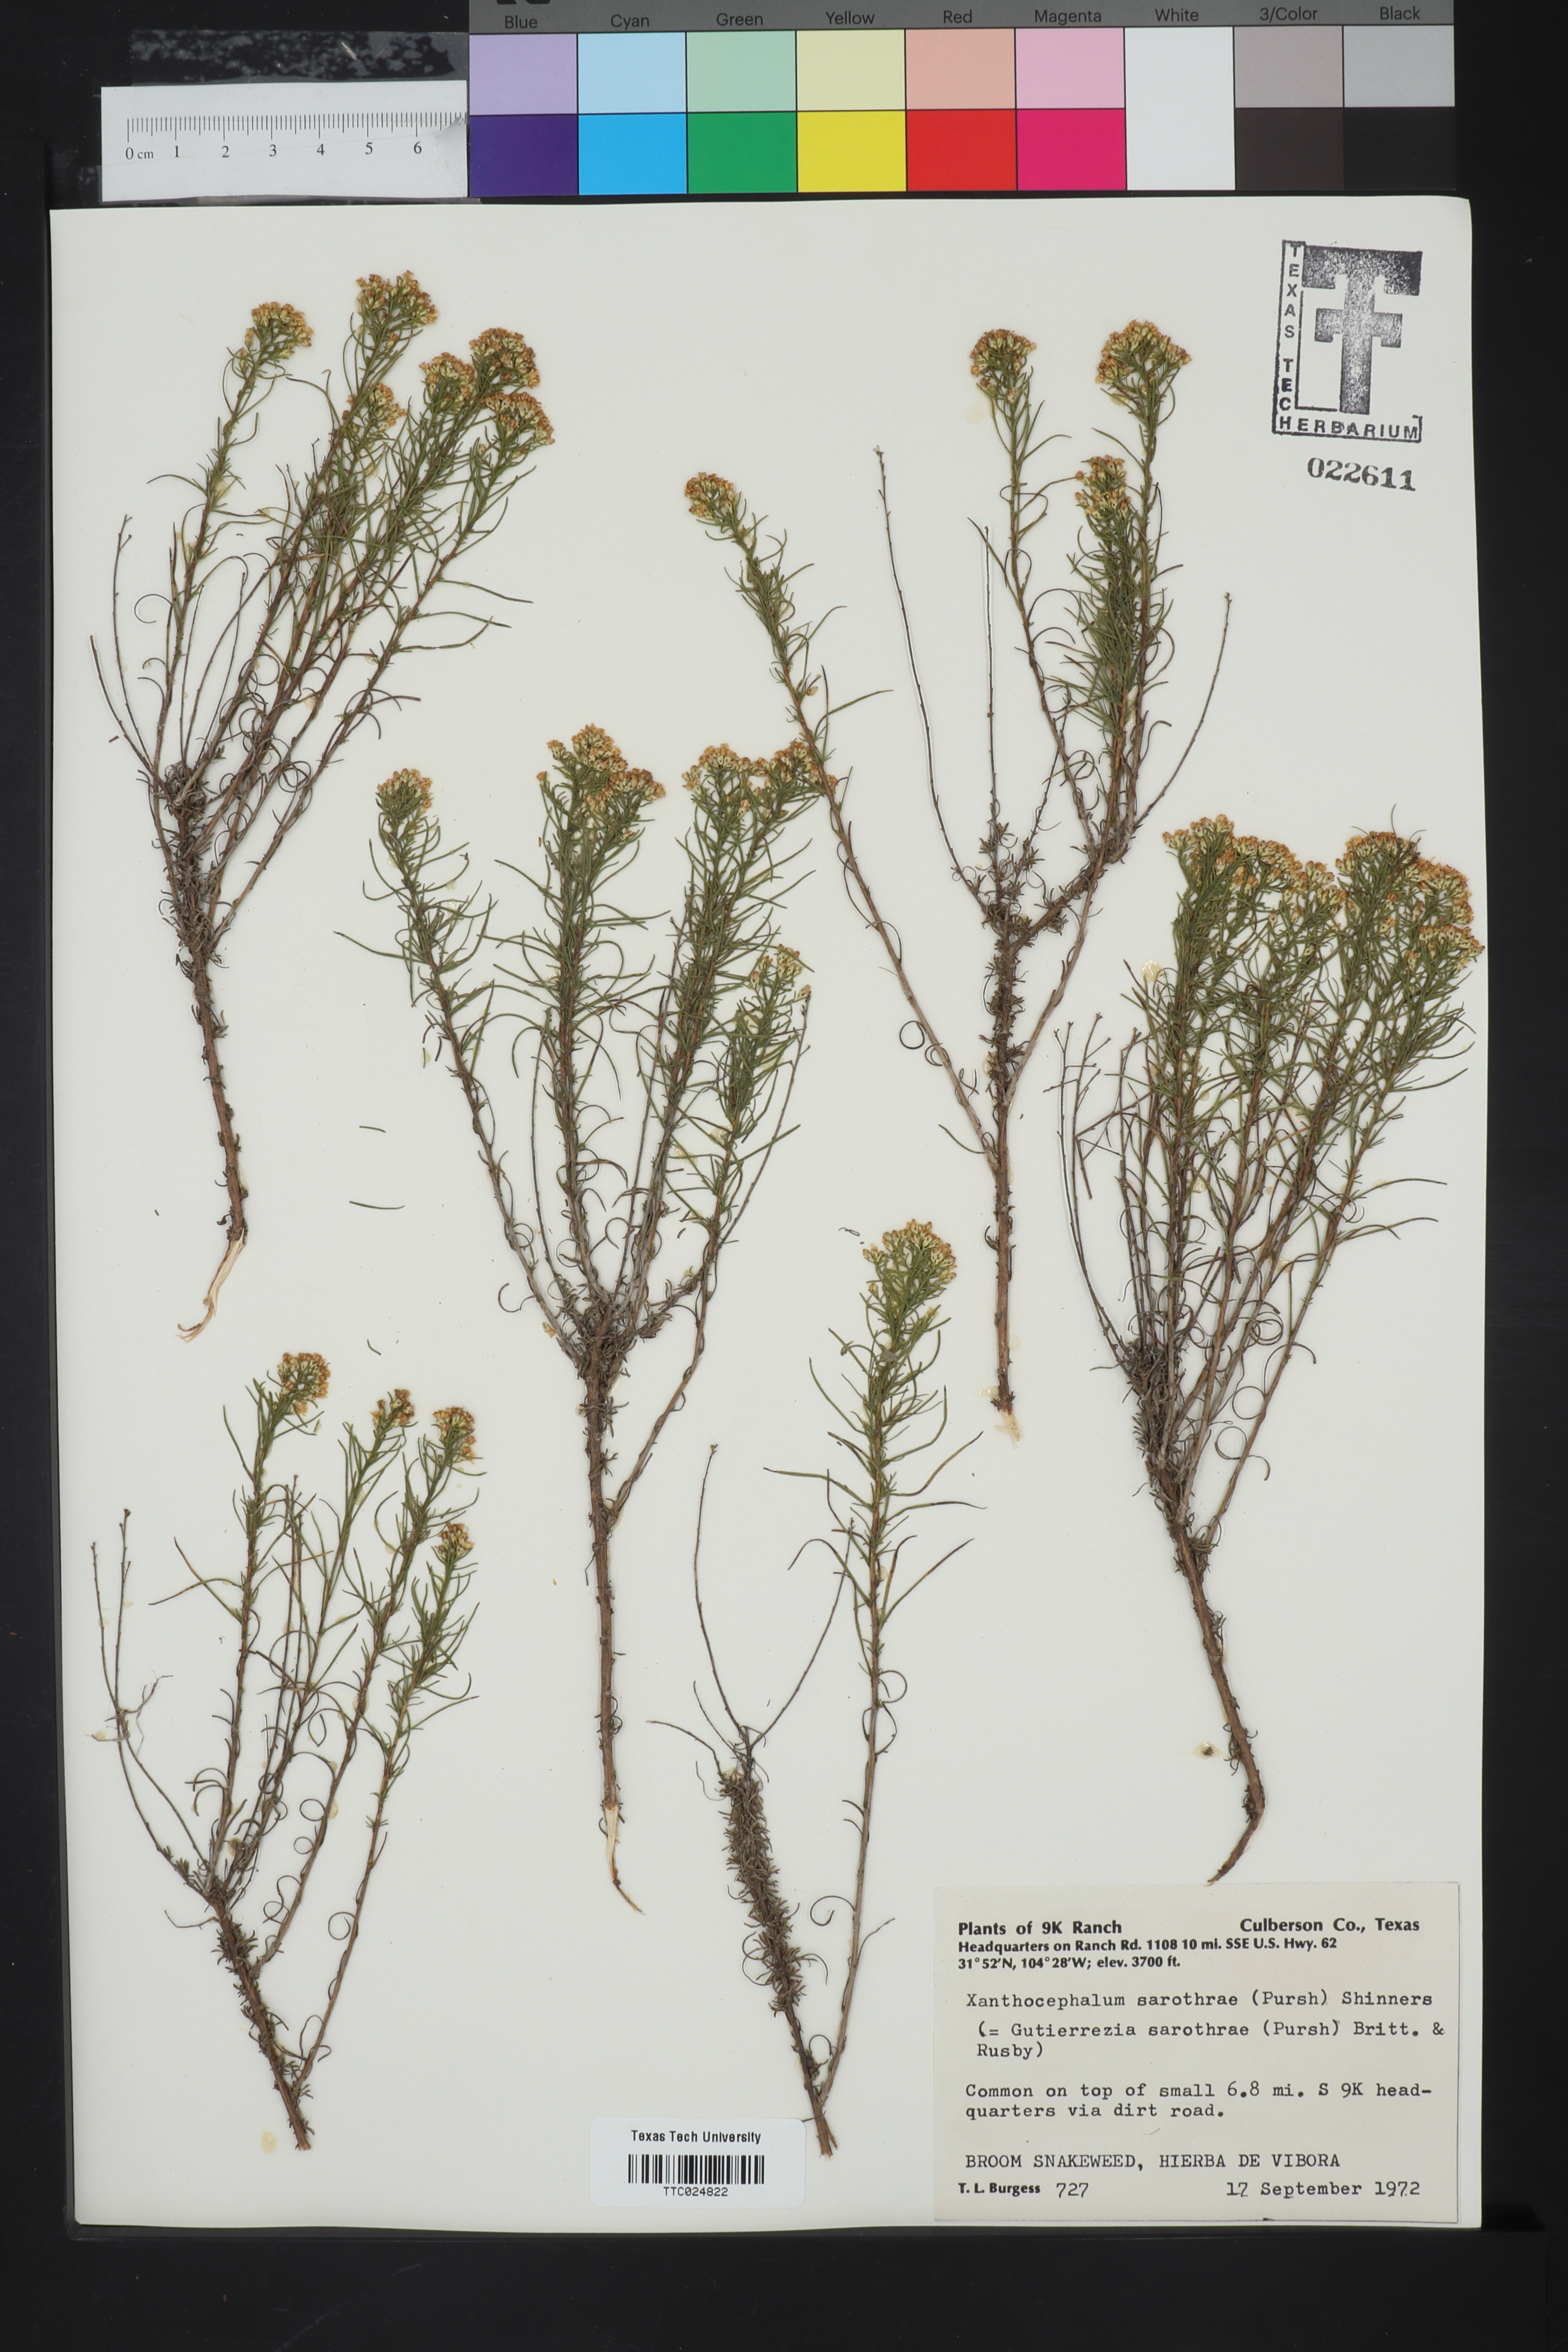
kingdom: Plantae
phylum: Tracheophyta
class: Magnoliopsida
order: Asterales
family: Asteraceae
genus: Gutierrezia
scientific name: Gutierrezia sarothrae
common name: Broom snakeweed
